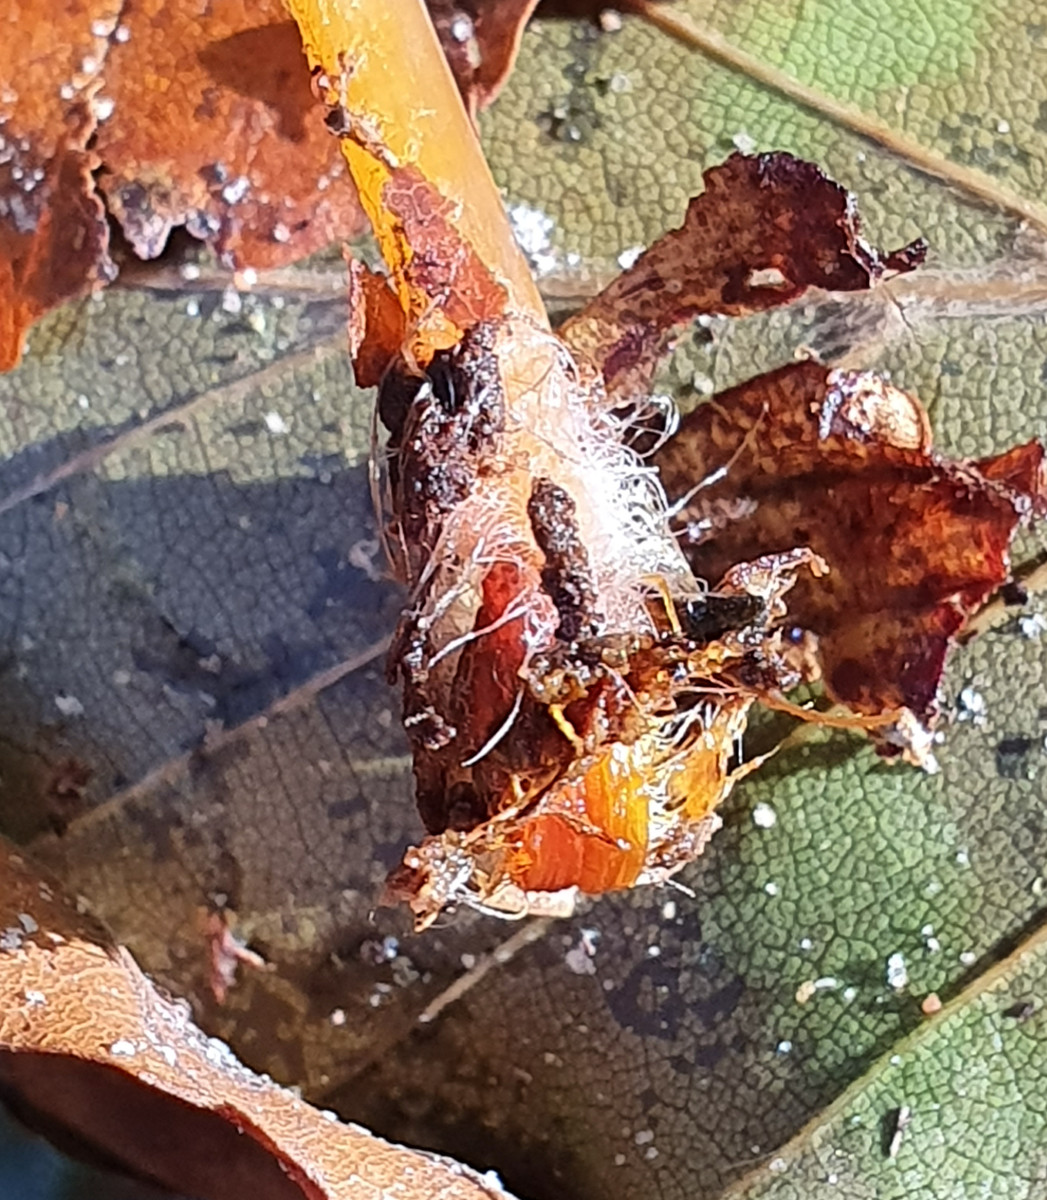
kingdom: Fungi
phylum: Basidiomycota
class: Agaricomycetes
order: Agaricales
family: Mycenaceae
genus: Mycena
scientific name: Mycena crocata
